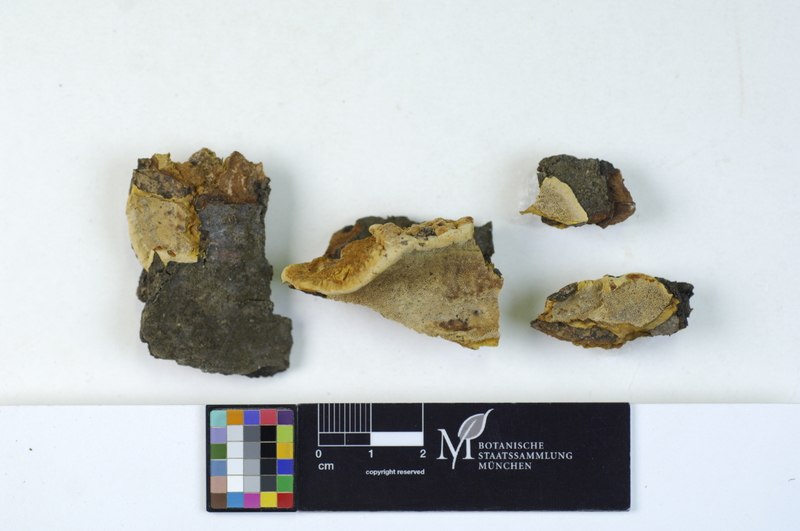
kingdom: Plantae
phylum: Tracheophyta
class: Magnoliopsida
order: Fagales
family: Fagaceae
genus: Fagus
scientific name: Fagus sylvatica
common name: Beech
